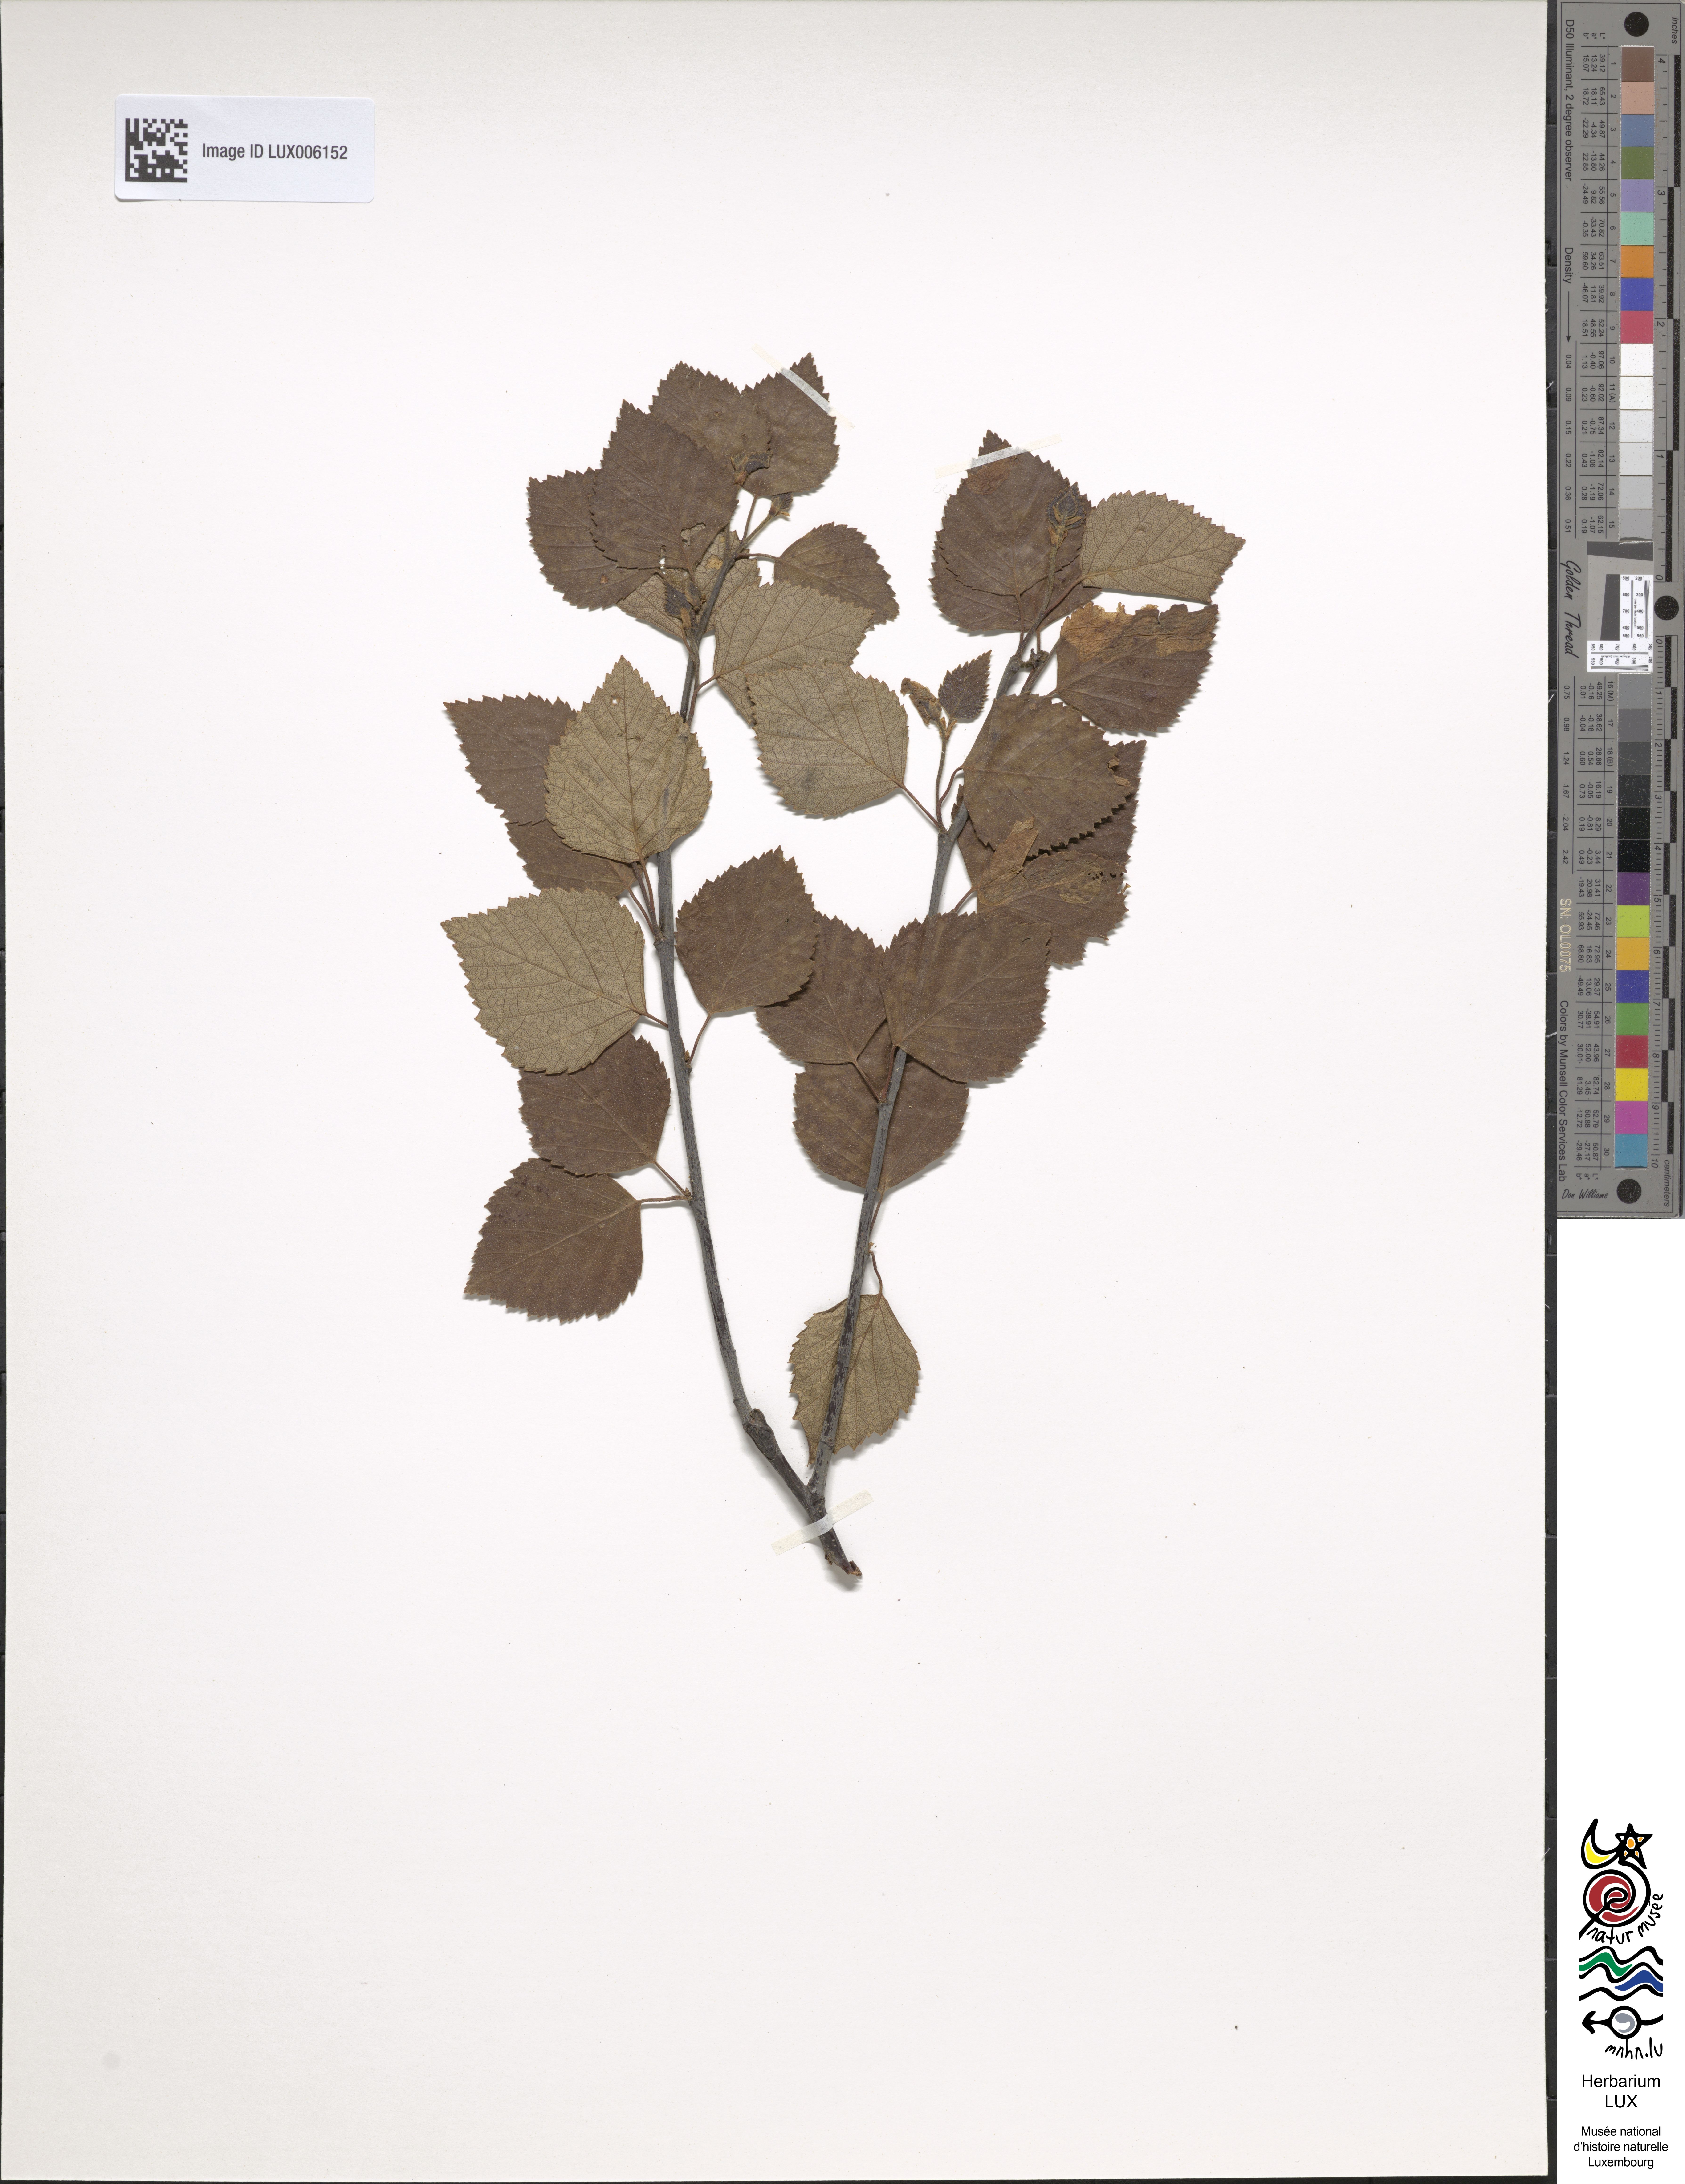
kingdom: Plantae
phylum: Tracheophyta
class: Magnoliopsida
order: Fagales
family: Betulaceae
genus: Betula
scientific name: Betula pubescens
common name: Downy birch
